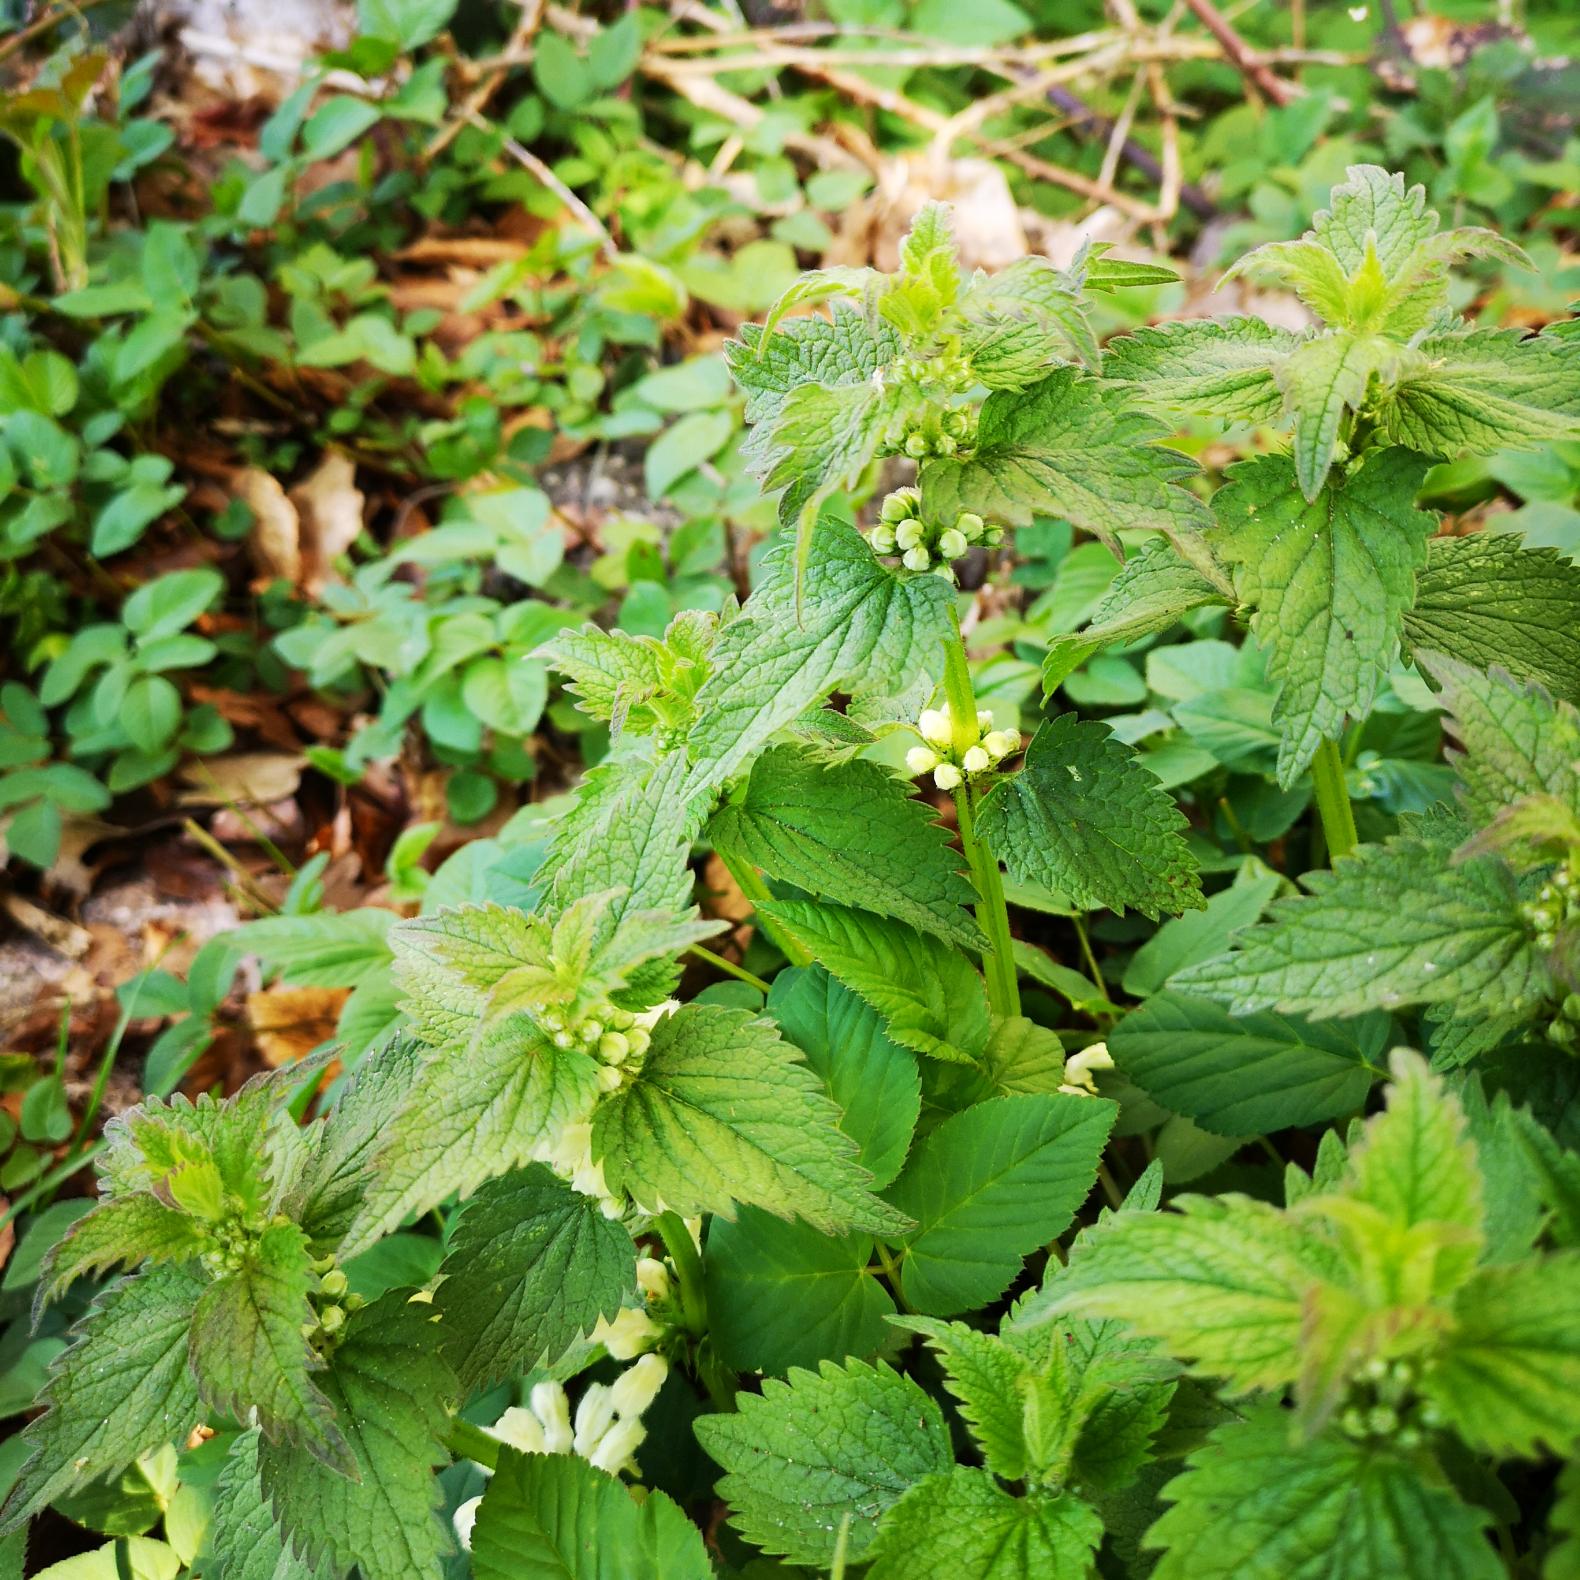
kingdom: Plantae
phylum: Tracheophyta
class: Magnoliopsida
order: Lamiales
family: Lamiaceae
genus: Lamium
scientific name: Lamium album
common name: Døvnælde
